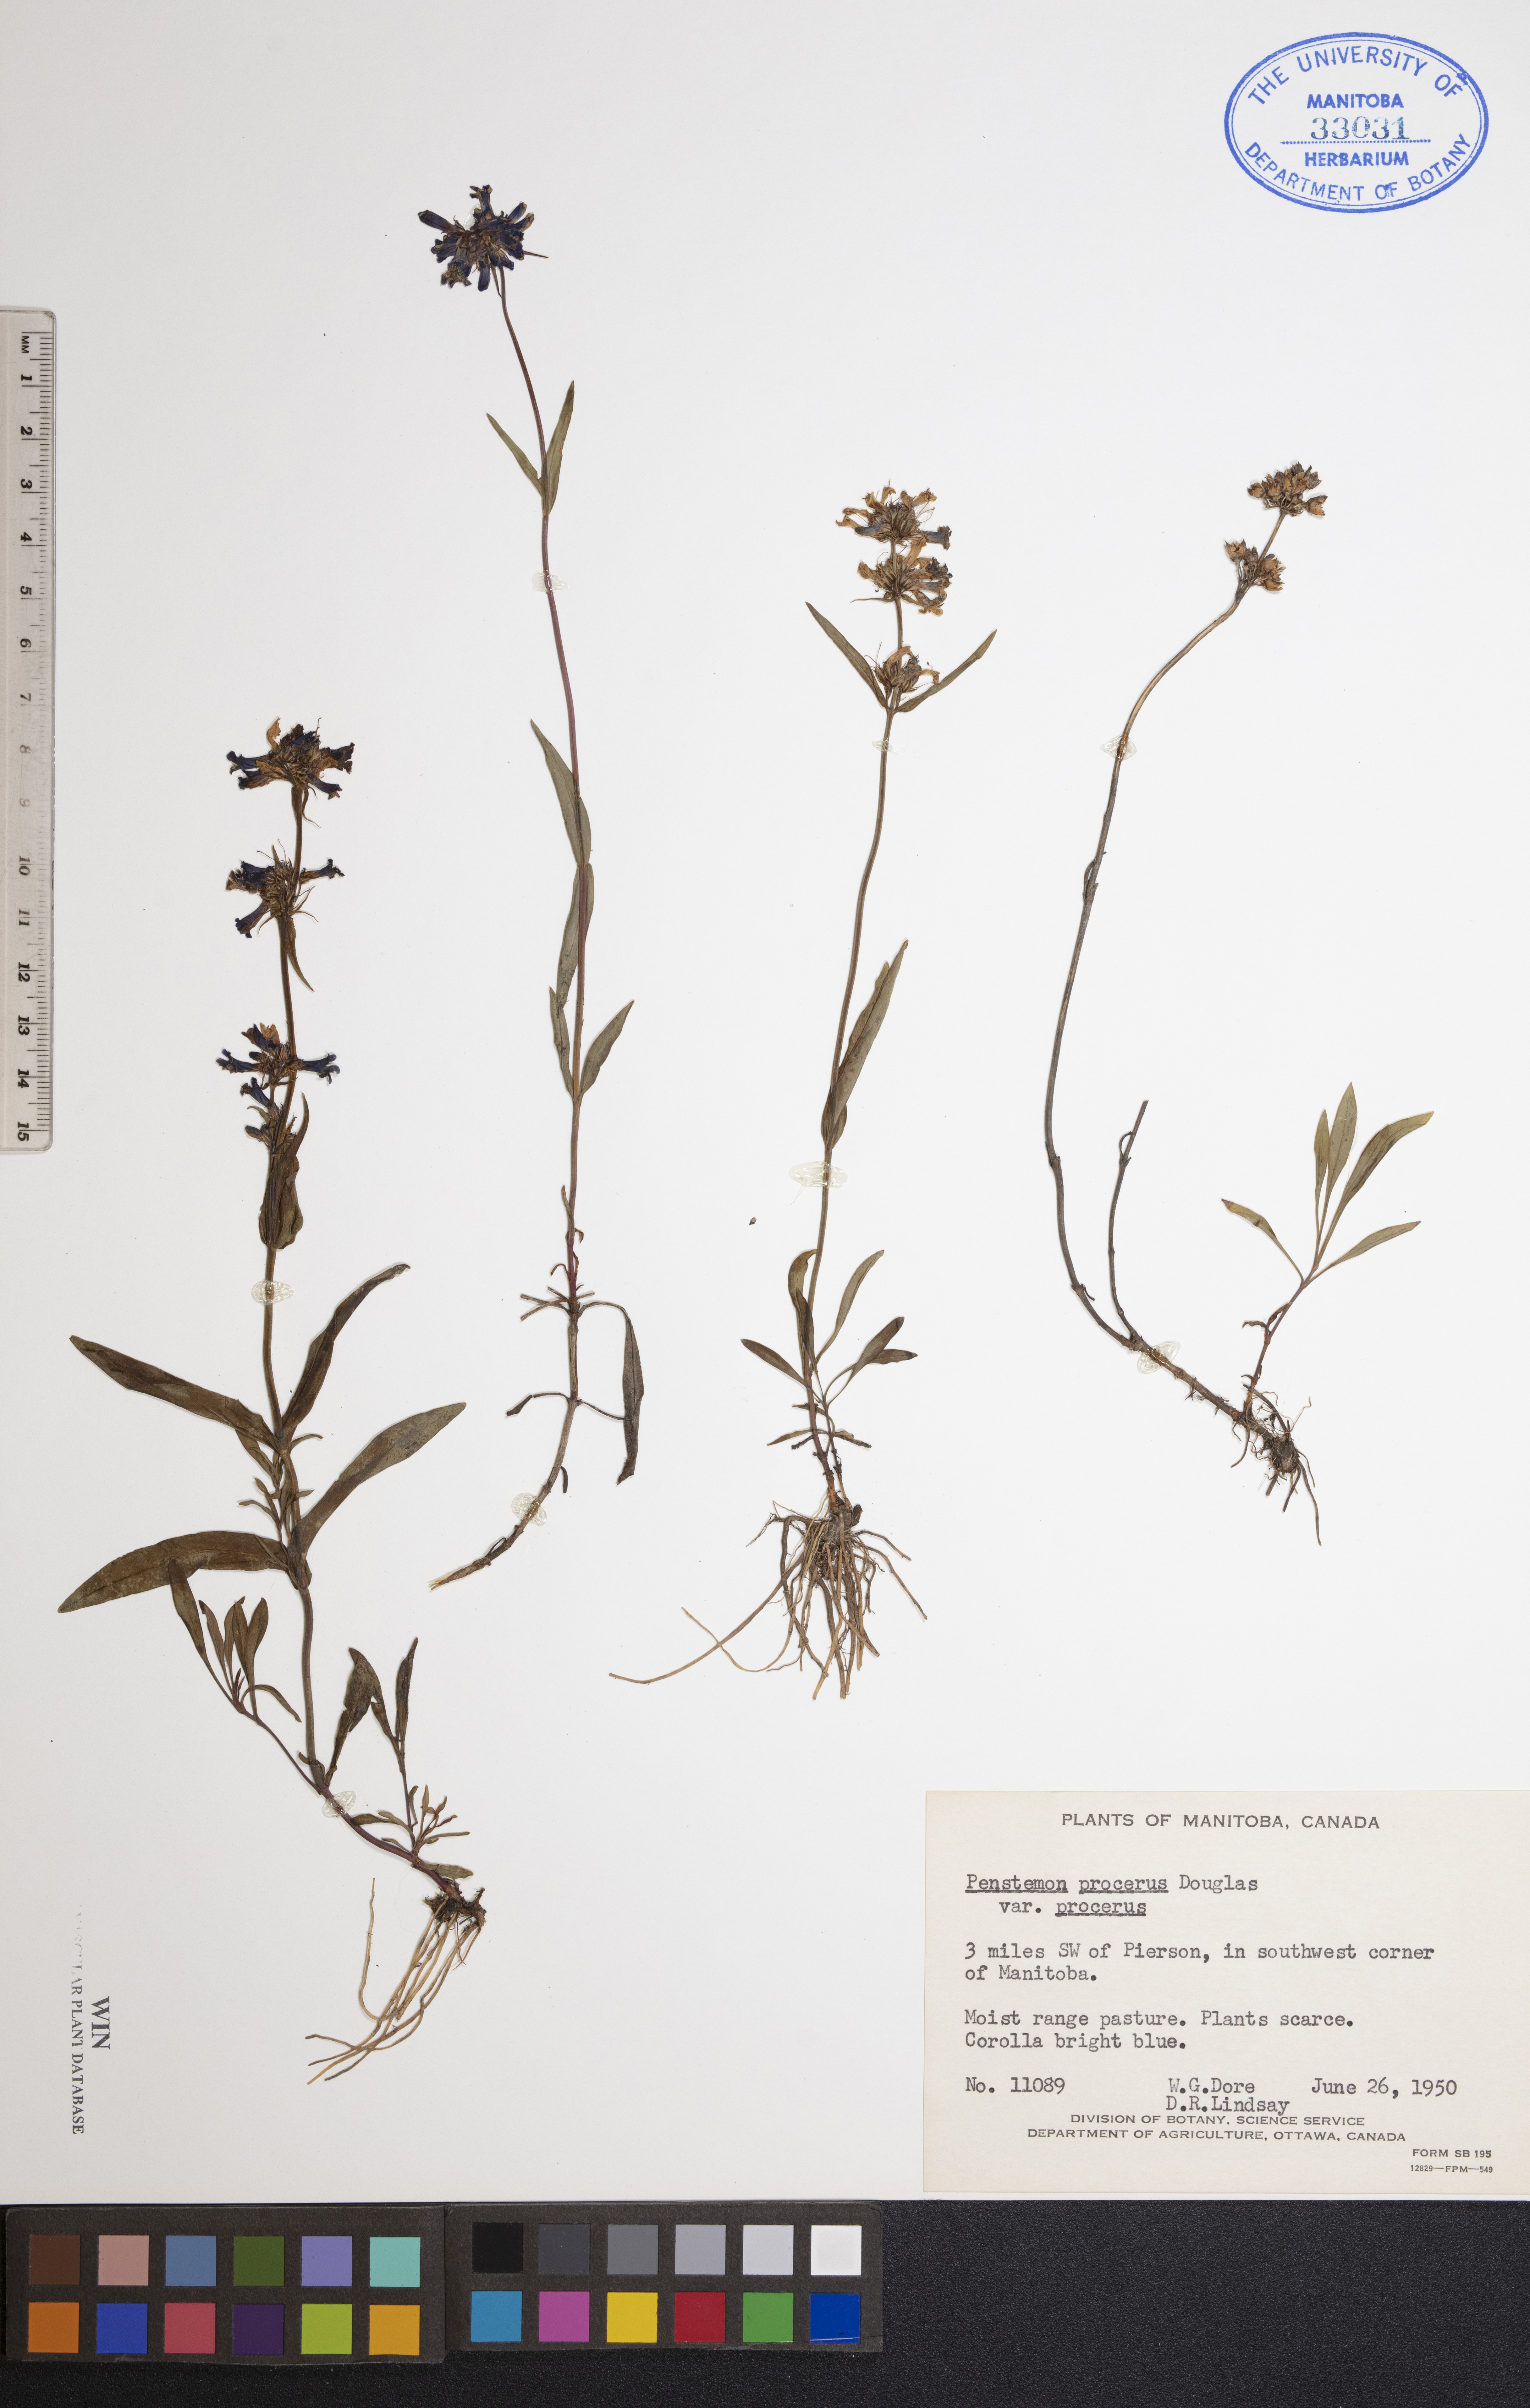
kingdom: Plantae
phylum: Tracheophyta
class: Magnoliopsida
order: Lamiales
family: Plantaginaceae
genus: Penstemon
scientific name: Penstemon procerus
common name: Small-flower penstemon
